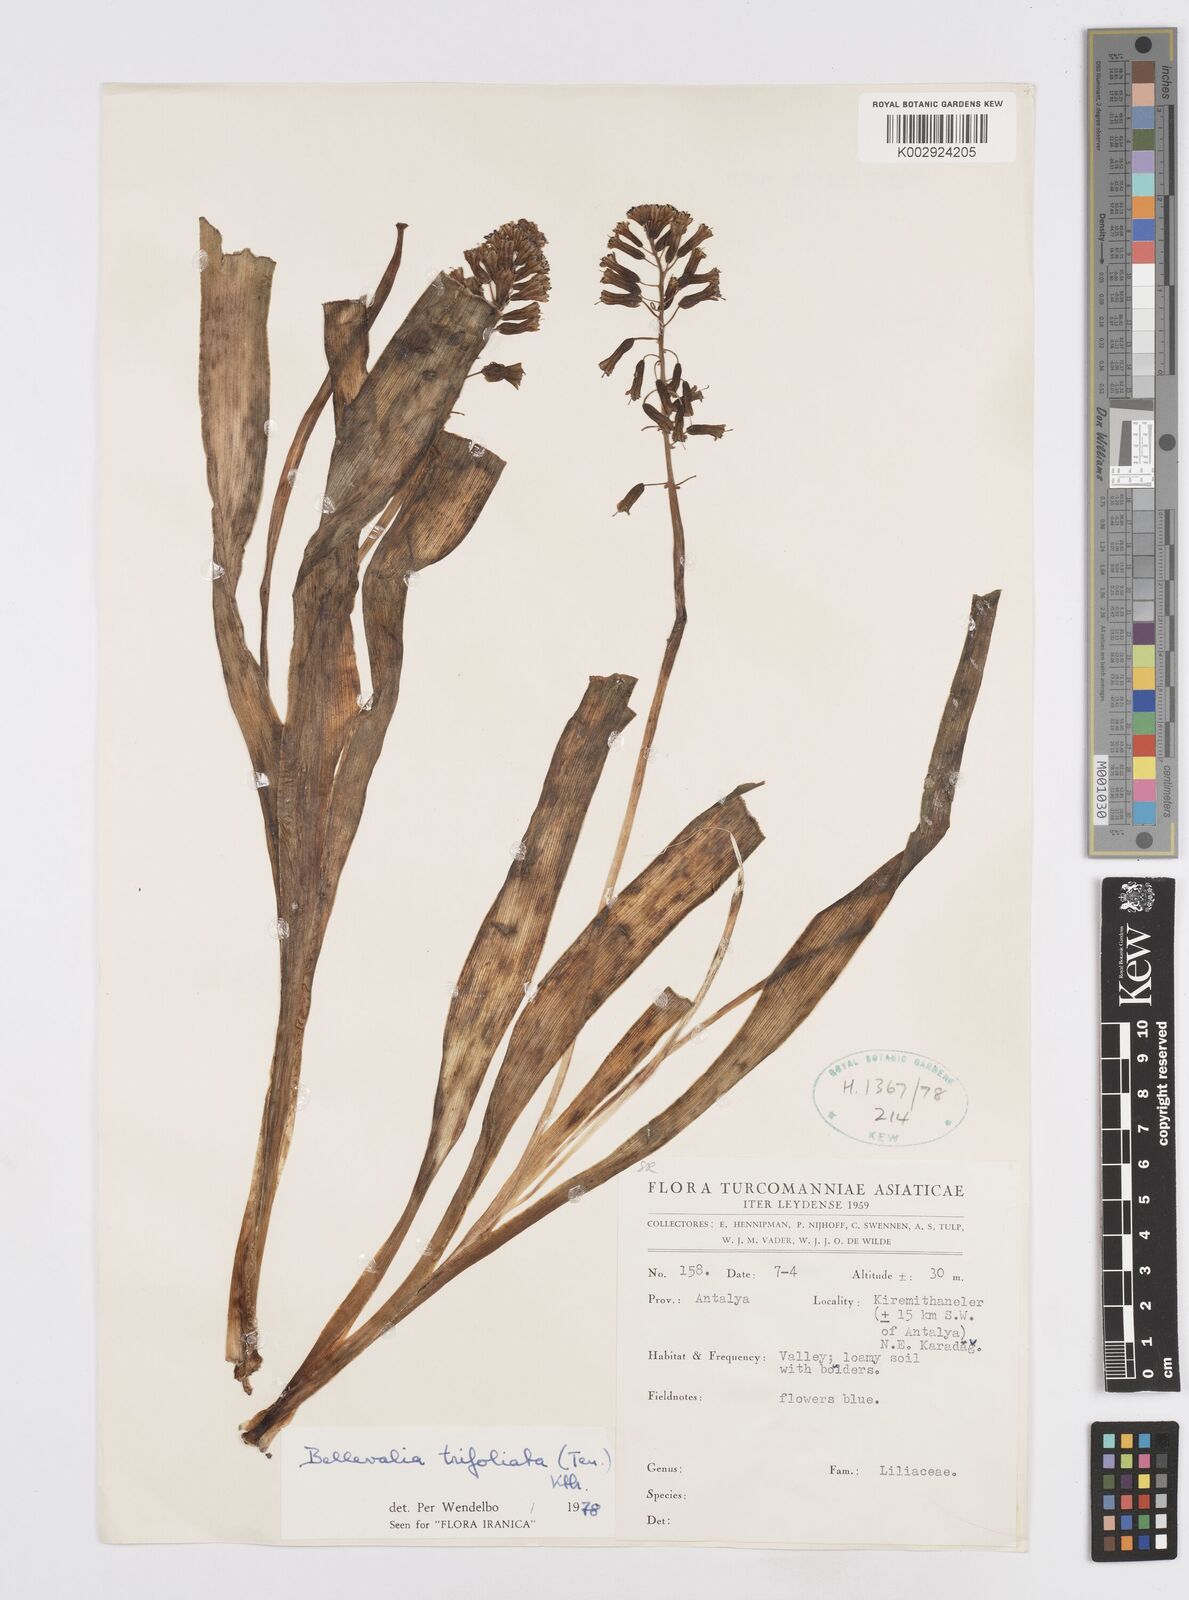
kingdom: Plantae
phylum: Tracheophyta
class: Liliopsida
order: Asparagales
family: Asparagaceae
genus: Bellevalia
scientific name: Bellevalia trifoliata
